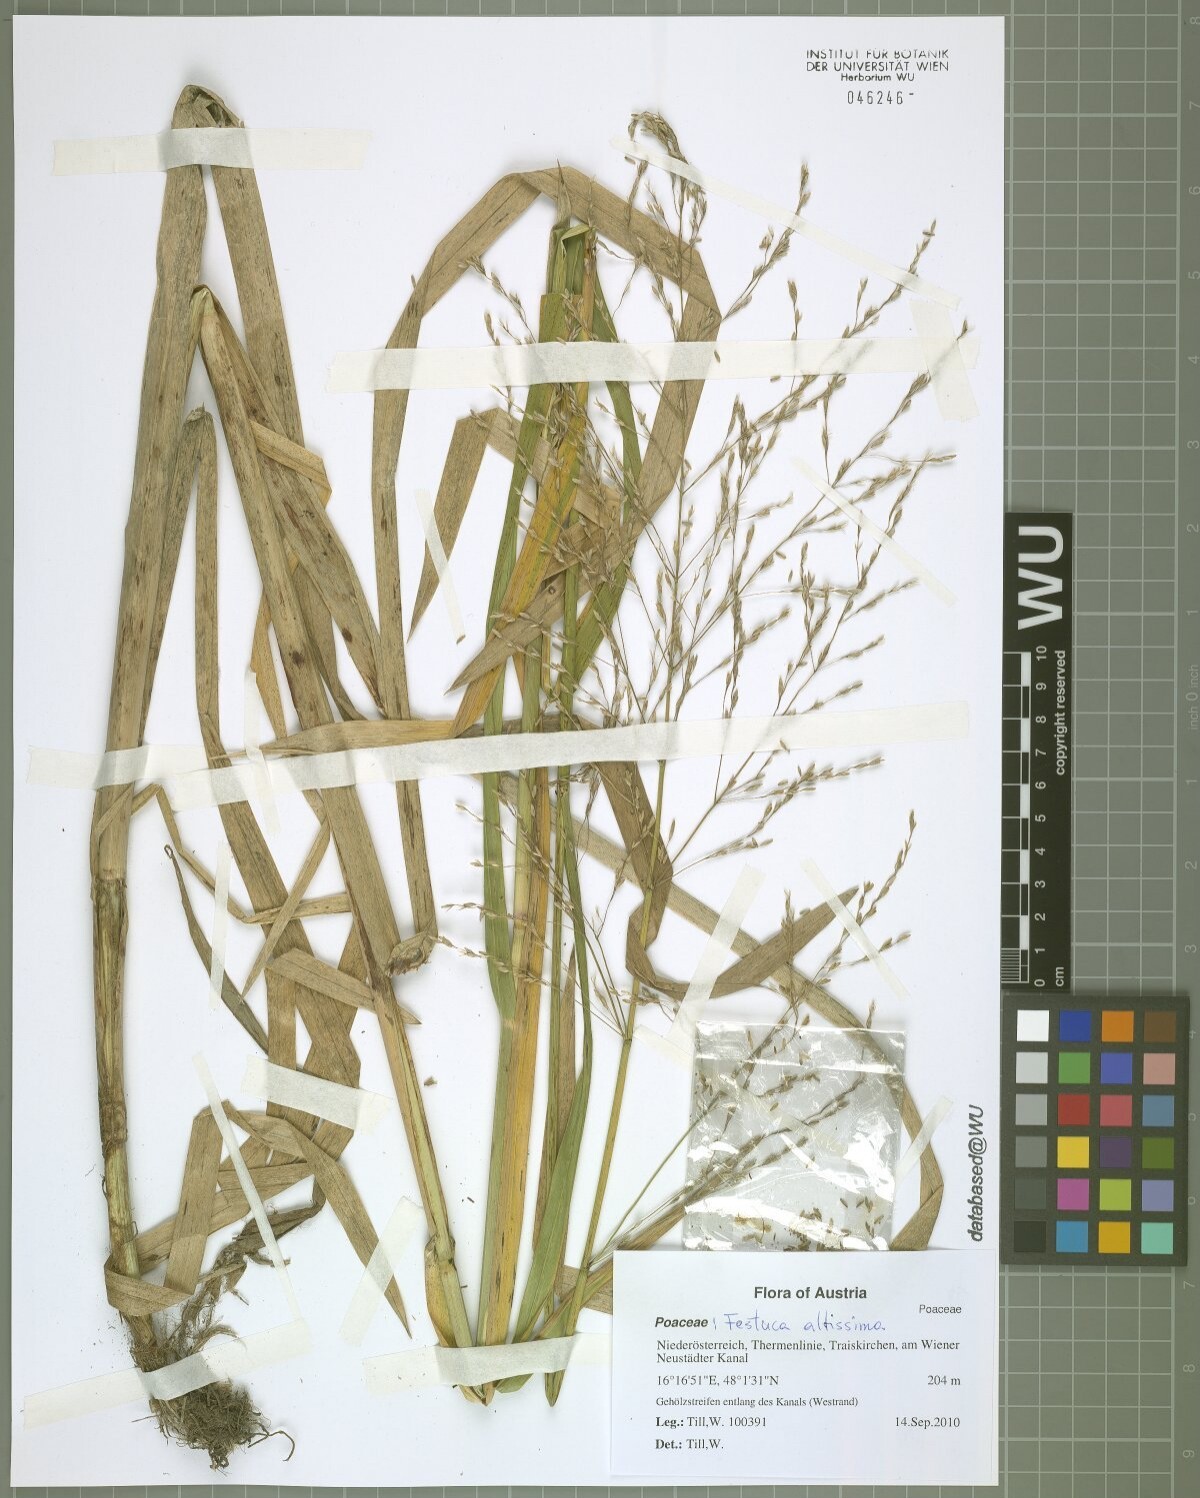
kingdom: Plantae
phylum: Tracheophyta
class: Liliopsida
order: Poales
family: Poaceae
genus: Glyceria
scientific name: Glyceria maxima
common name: Reed mannagrass
